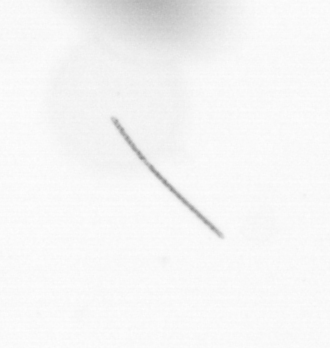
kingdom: Chromista
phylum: Ochrophyta
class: Bacillariophyceae
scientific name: Bacillariophyceae
